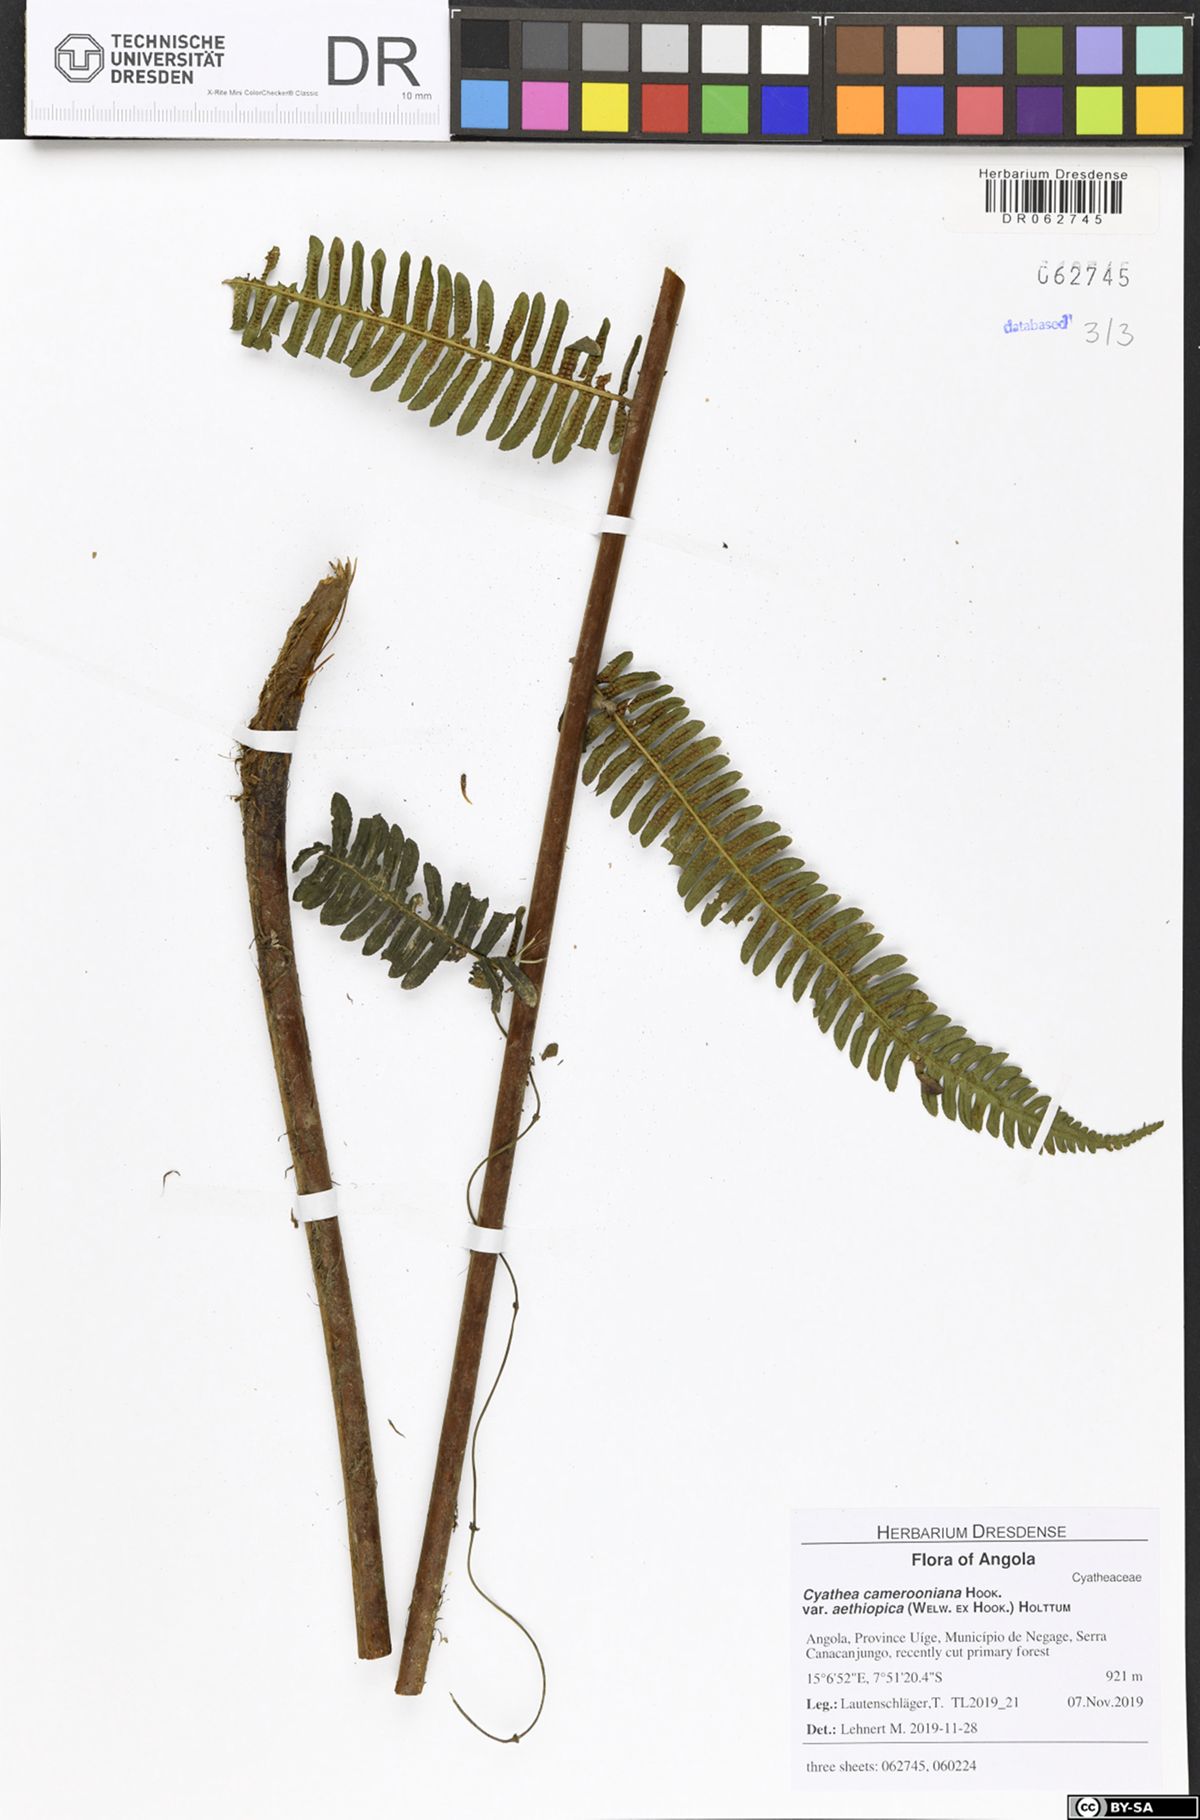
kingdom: Plantae
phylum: Tracheophyta
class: Polypodiopsida
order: Cyatheales
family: Cyatheaceae
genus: Alsophila
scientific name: Alsophila camerooniana
